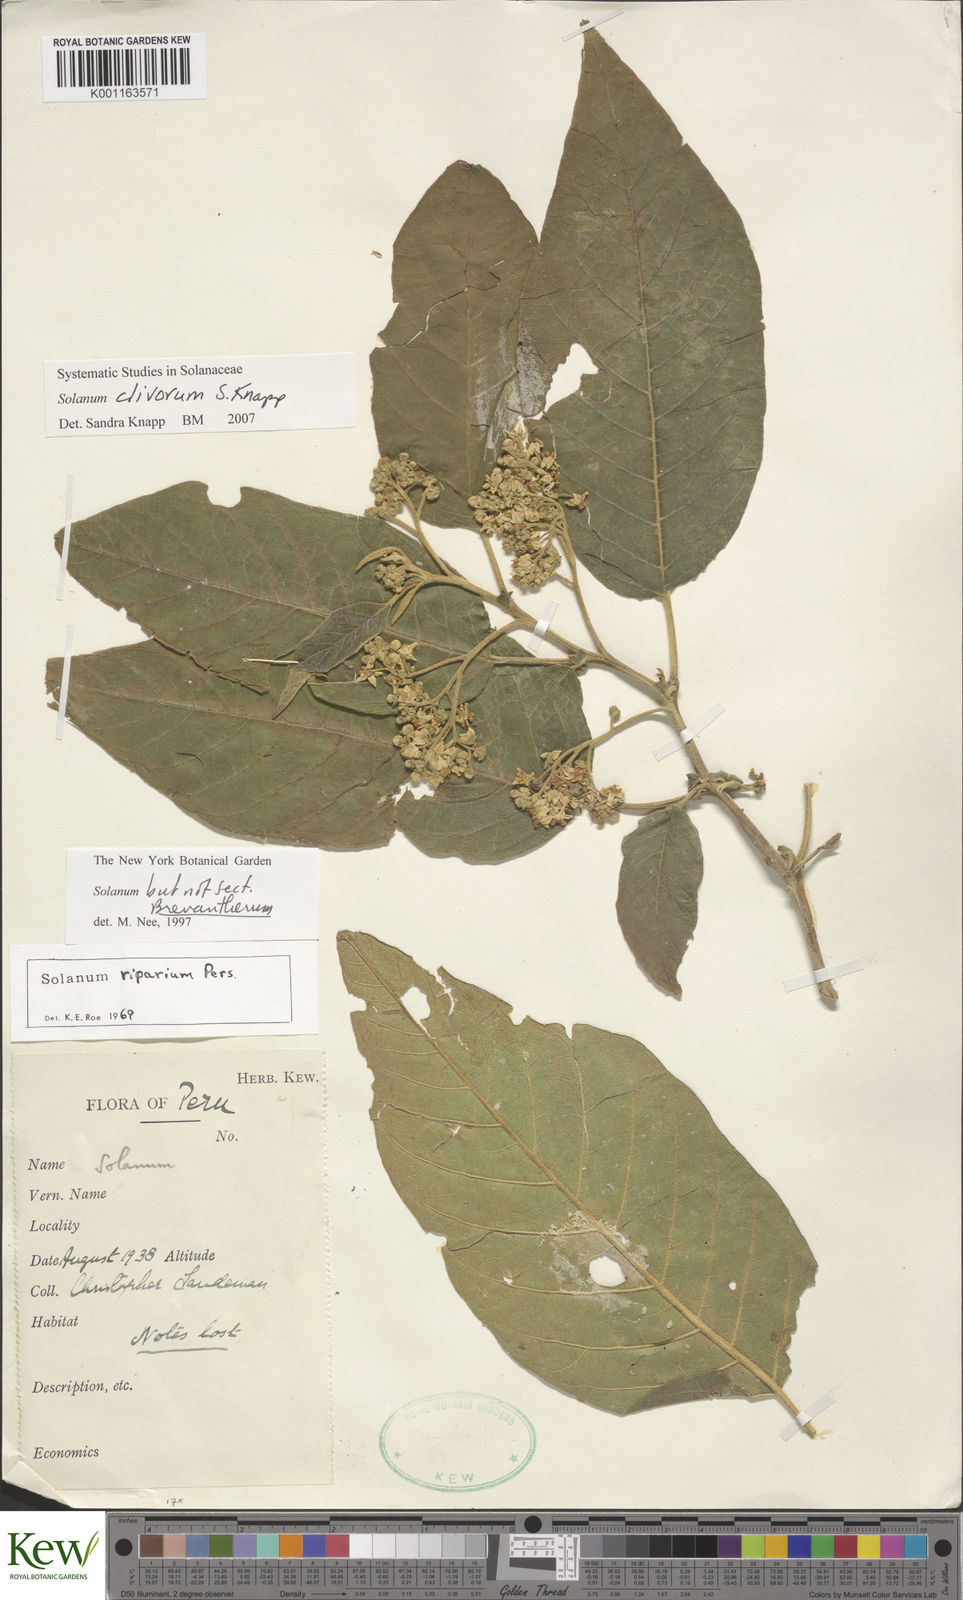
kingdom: Plantae
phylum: Tracheophyta
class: Magnoliopsida
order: Solanales
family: Solanaceae
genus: Solanum
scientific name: Solanum clivorum
